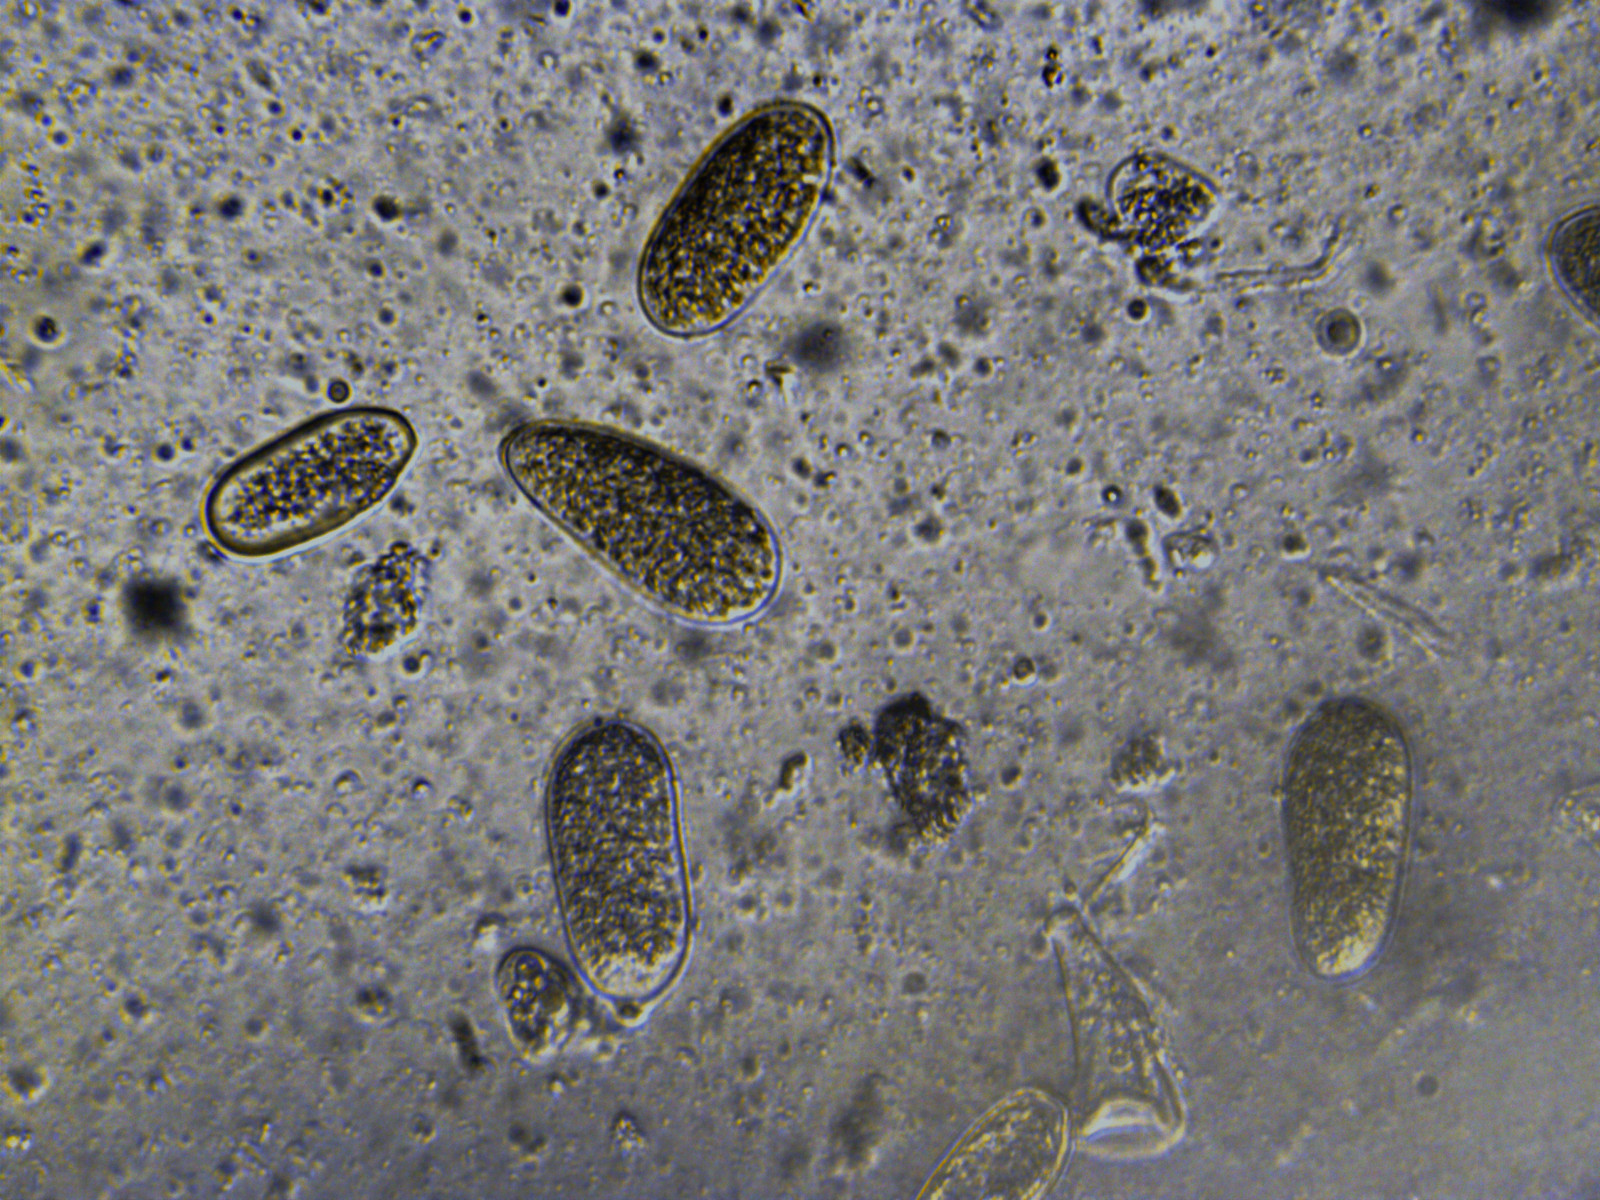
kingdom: Fungi
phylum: Ascomycota
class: Dothideomycetes
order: Botryosphaeriales
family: Botryosphaeriaceae
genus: Botryosphaeria
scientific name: Botryosphaeria visci
